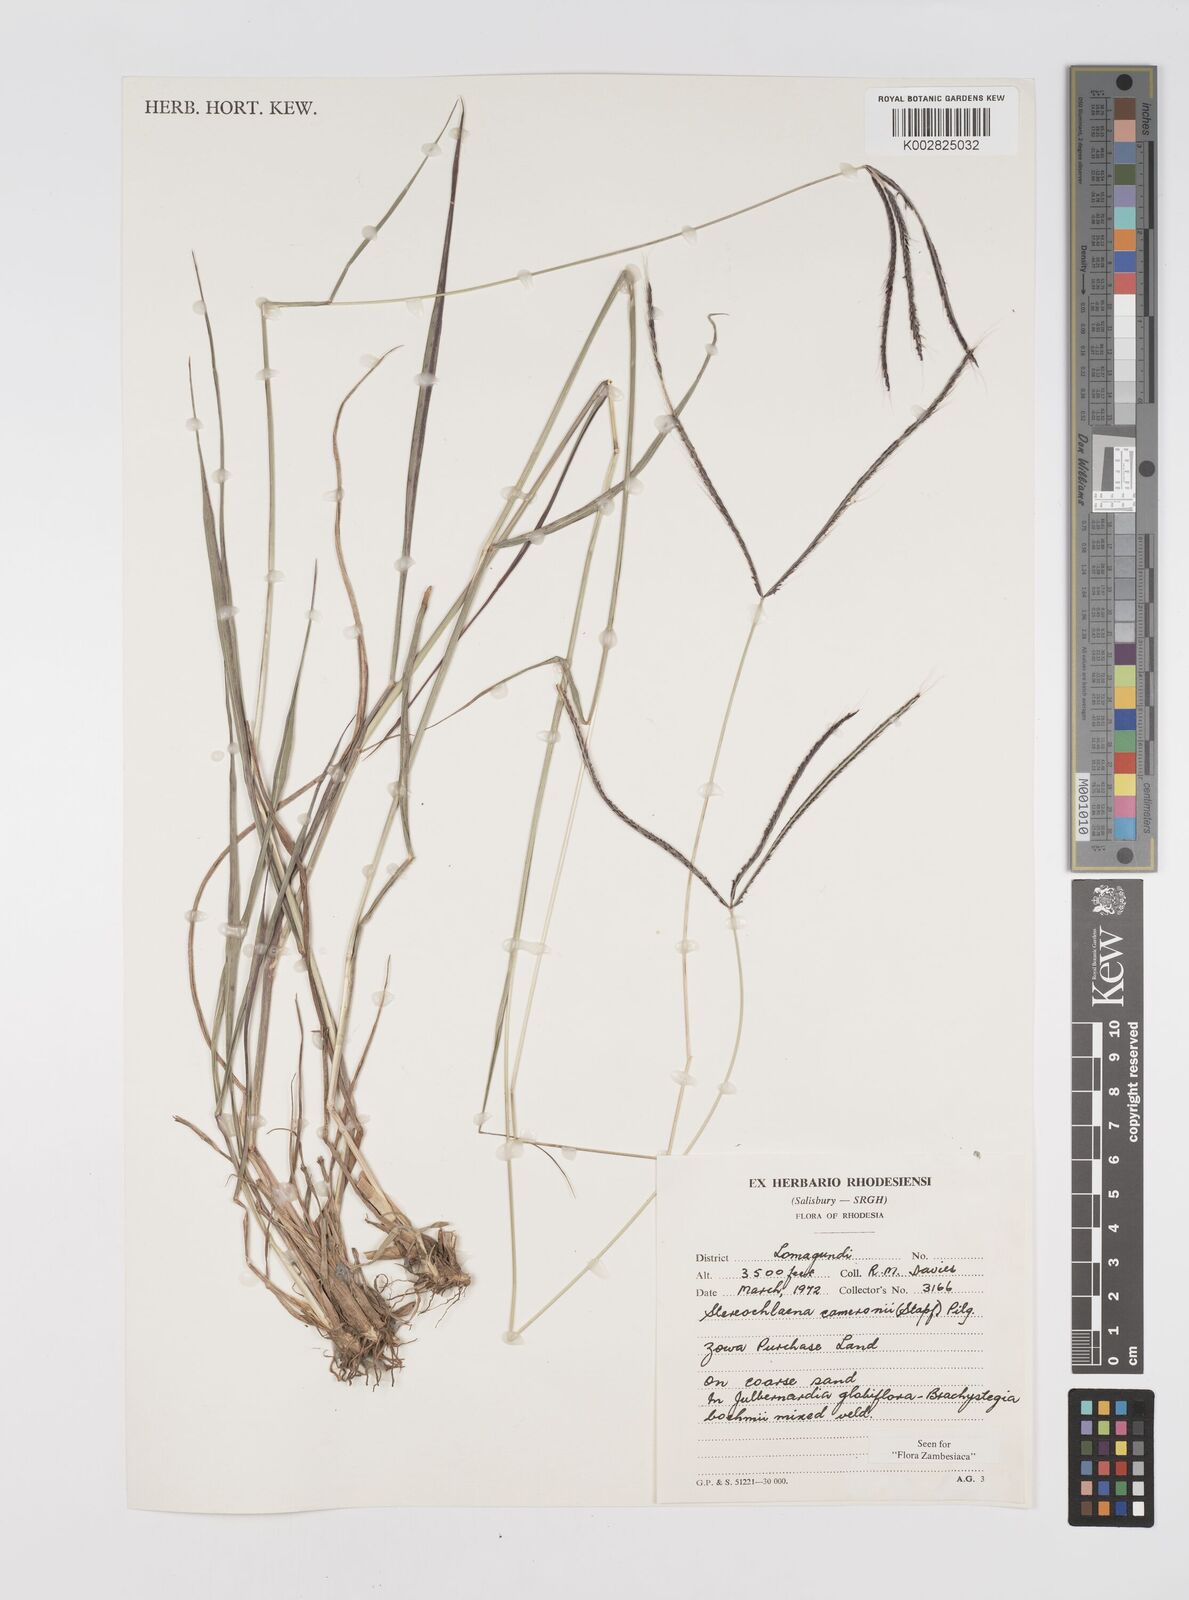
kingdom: Plantae
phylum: Tracheophyta
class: Liliopsida
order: Poales
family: Poaceae
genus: Stereochlaena
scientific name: Stereochlaena cameronii
